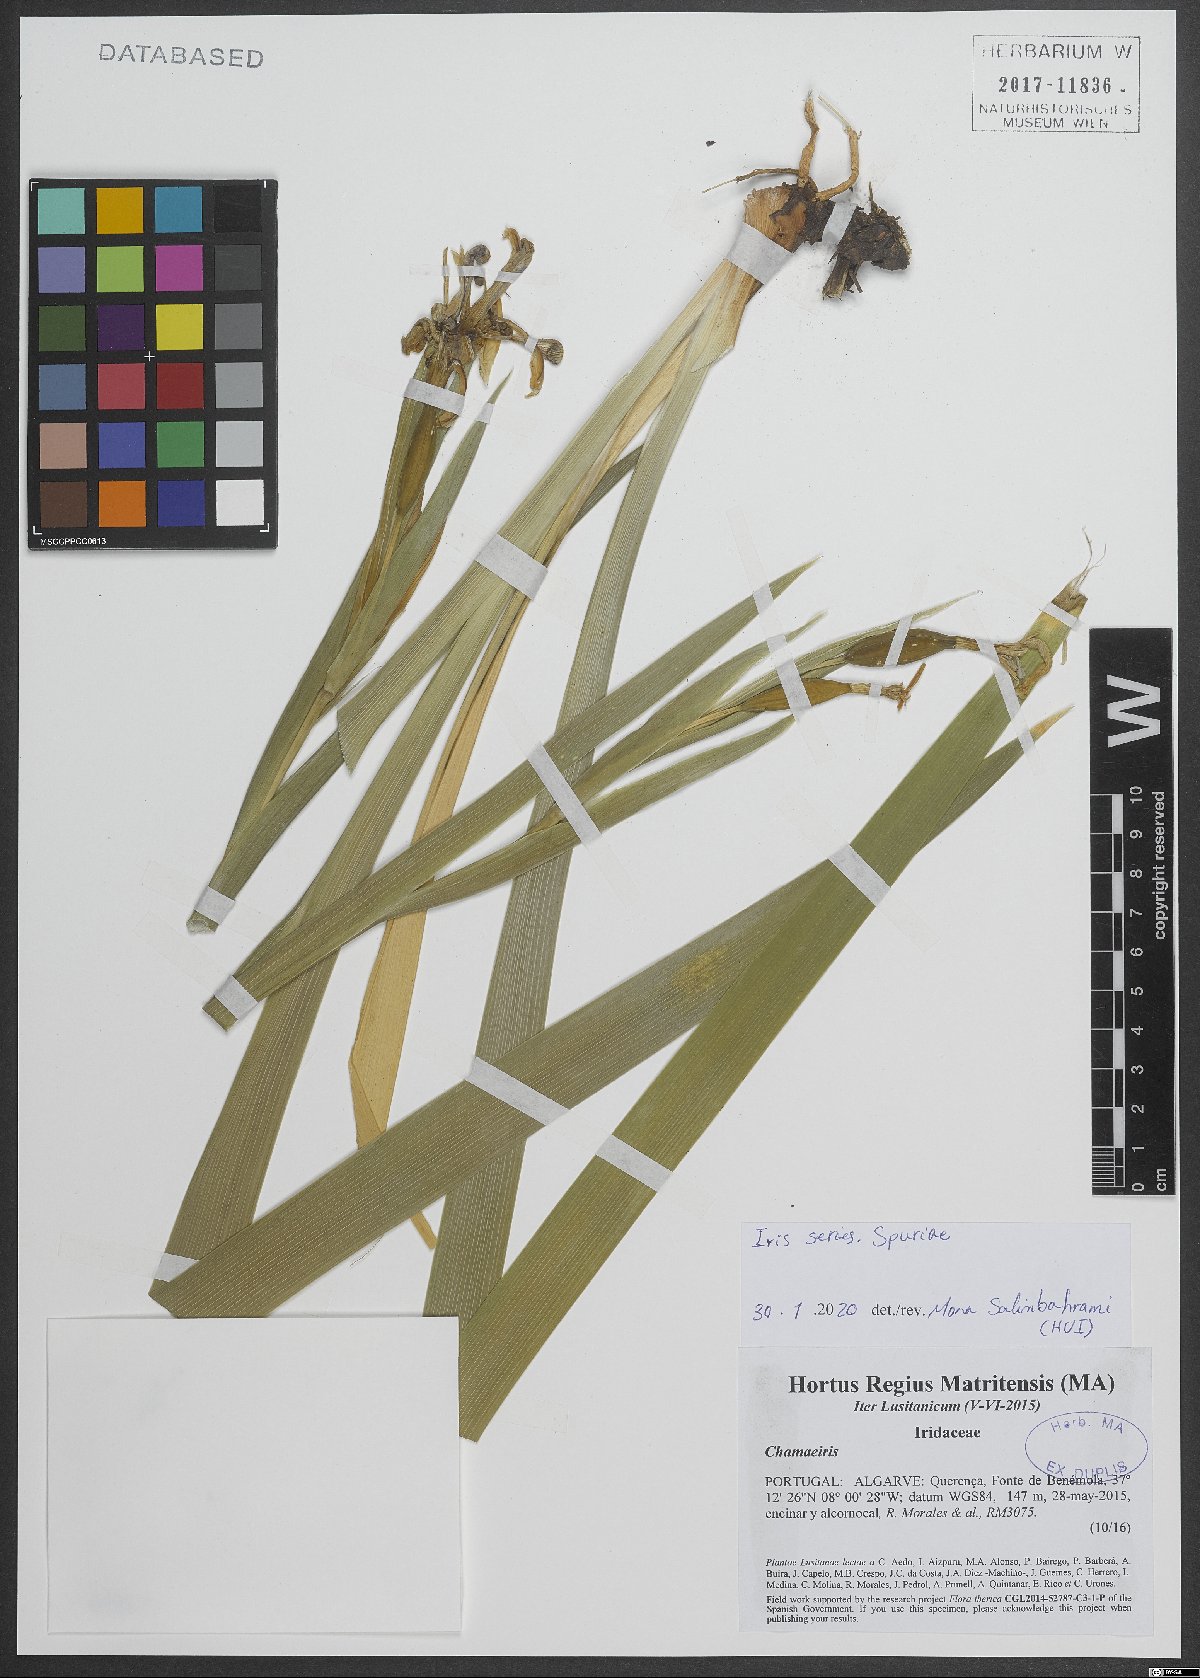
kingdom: Plantae
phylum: Tracheophyta
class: Liliopsida
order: Asparagales
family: Iridaceae
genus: Iris
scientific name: Iris
